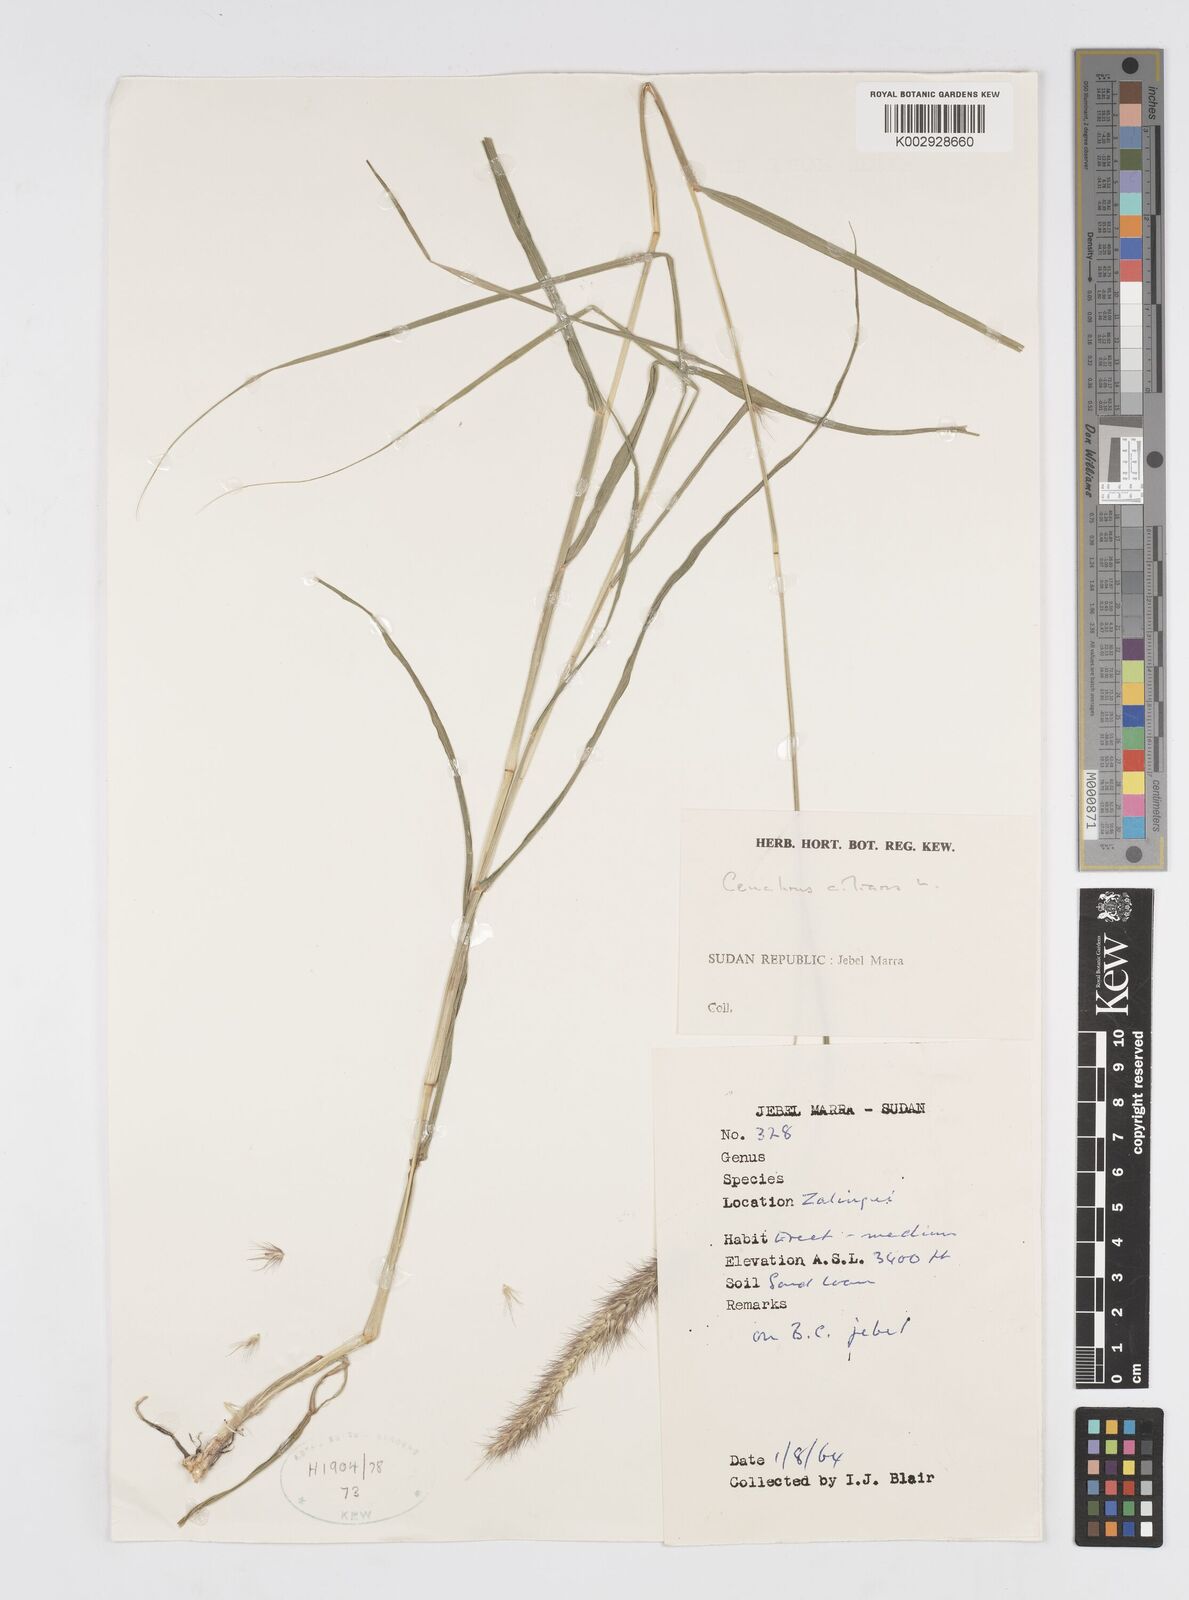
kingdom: Plantae
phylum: Tracheophyta
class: Liliopsida
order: Poales
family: Poaceae
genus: Cenchrus
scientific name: Cenchrus ciliaris
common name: Buffelgrass
